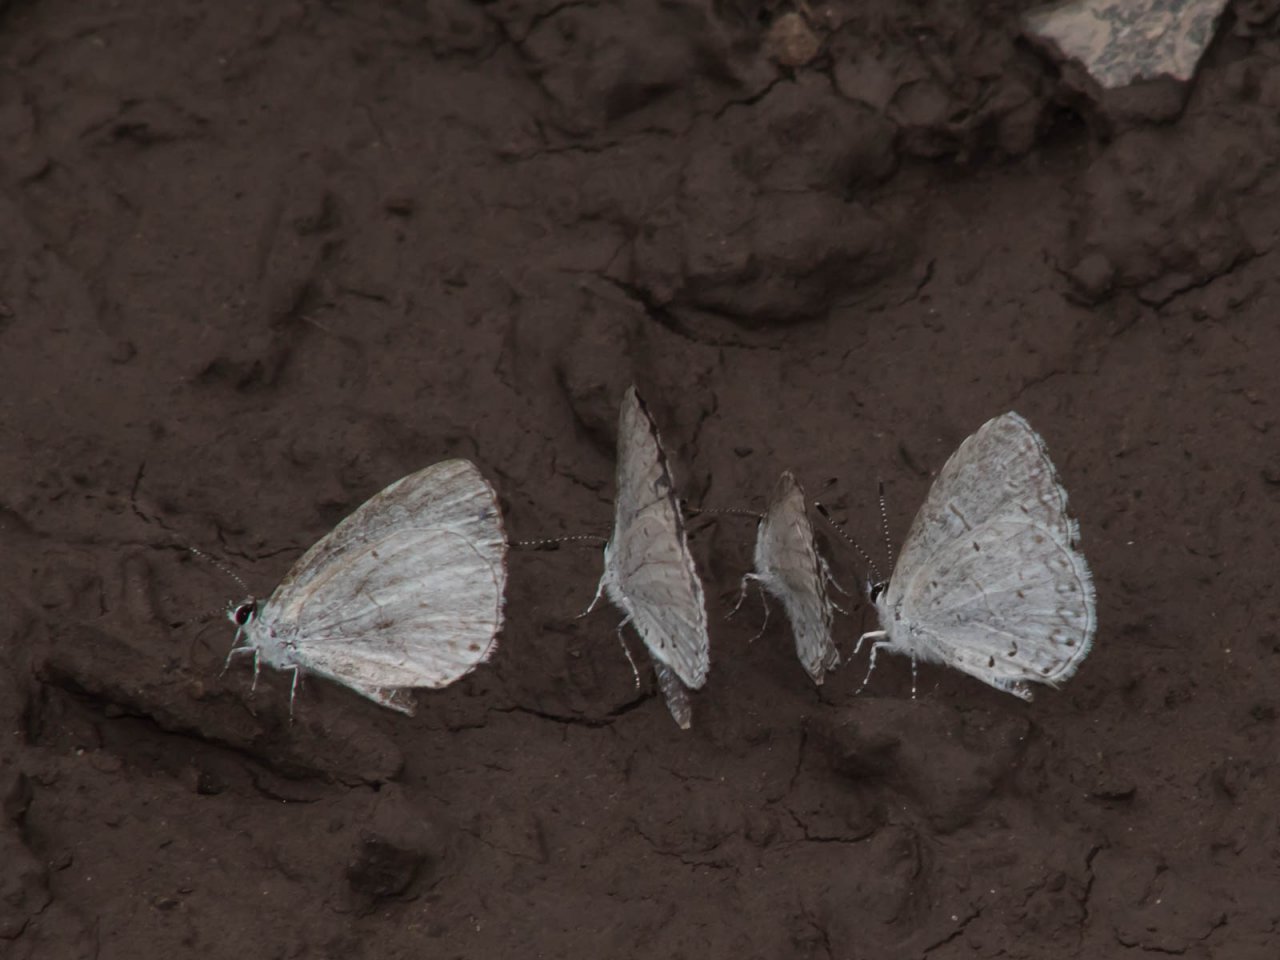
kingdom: Animalia
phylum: Arthropoda
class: Insecta
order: Lepidoptera
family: Lycaenidae
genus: Cyaniris
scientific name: Cyaniris neglecta
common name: Summer Azure
